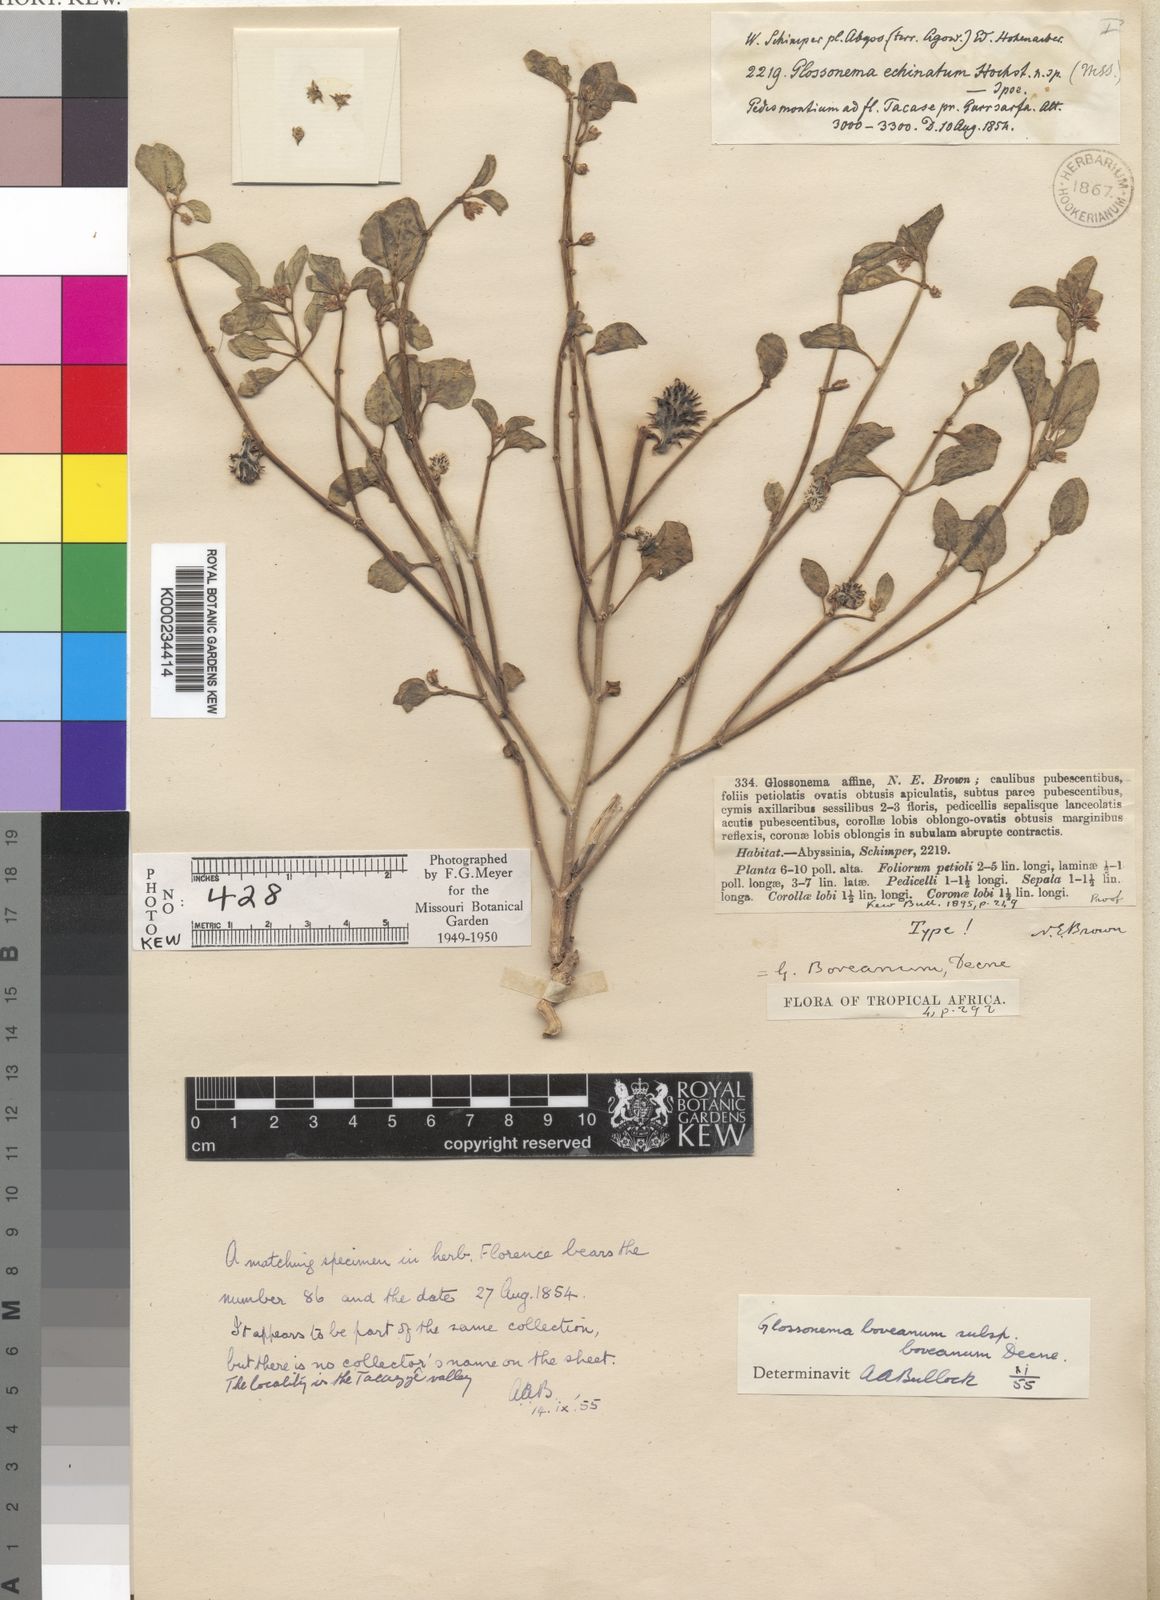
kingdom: Plantae
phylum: Tracheophyta
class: Magnoliopsida
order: Gentianales
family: Apocynaceae
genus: Cynanchum
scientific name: Cynanchum boveanum
